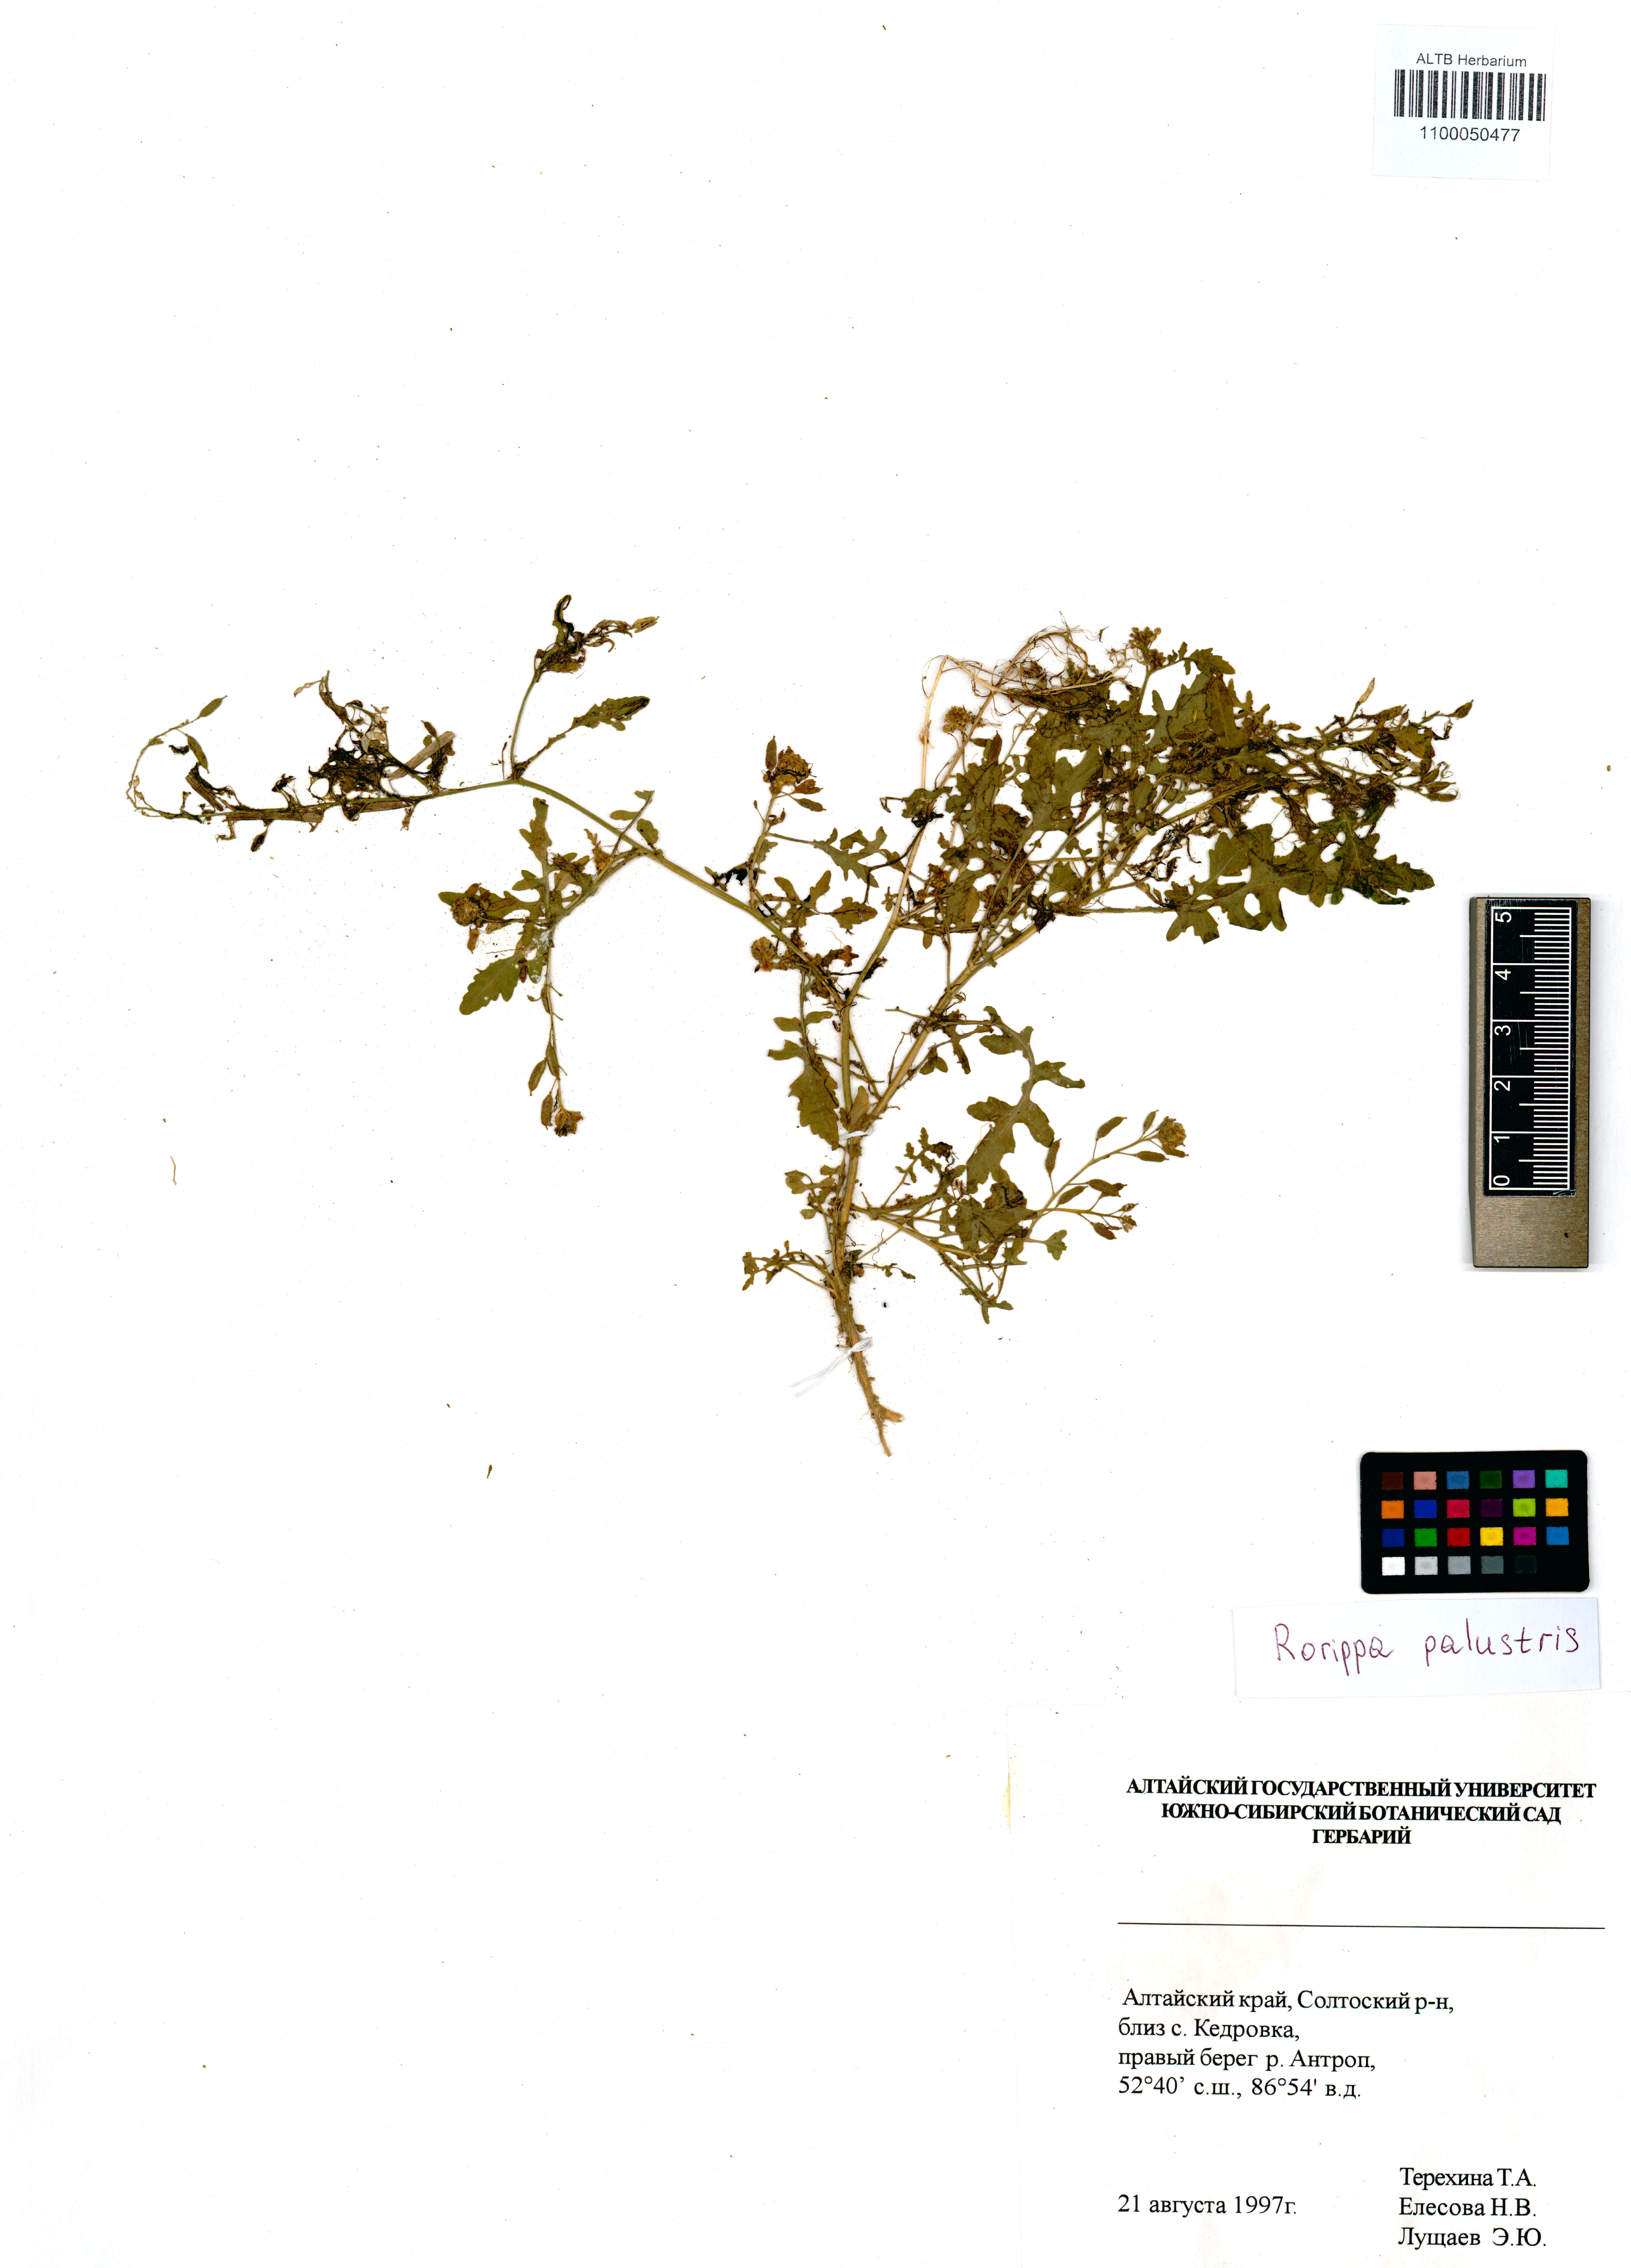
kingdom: Plantae
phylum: Tracheophyta
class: Magnoliopsida
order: Brassicales
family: Brassicaceae
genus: Rorippa
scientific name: Rorippa palustris
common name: Marsh yellow-cress
